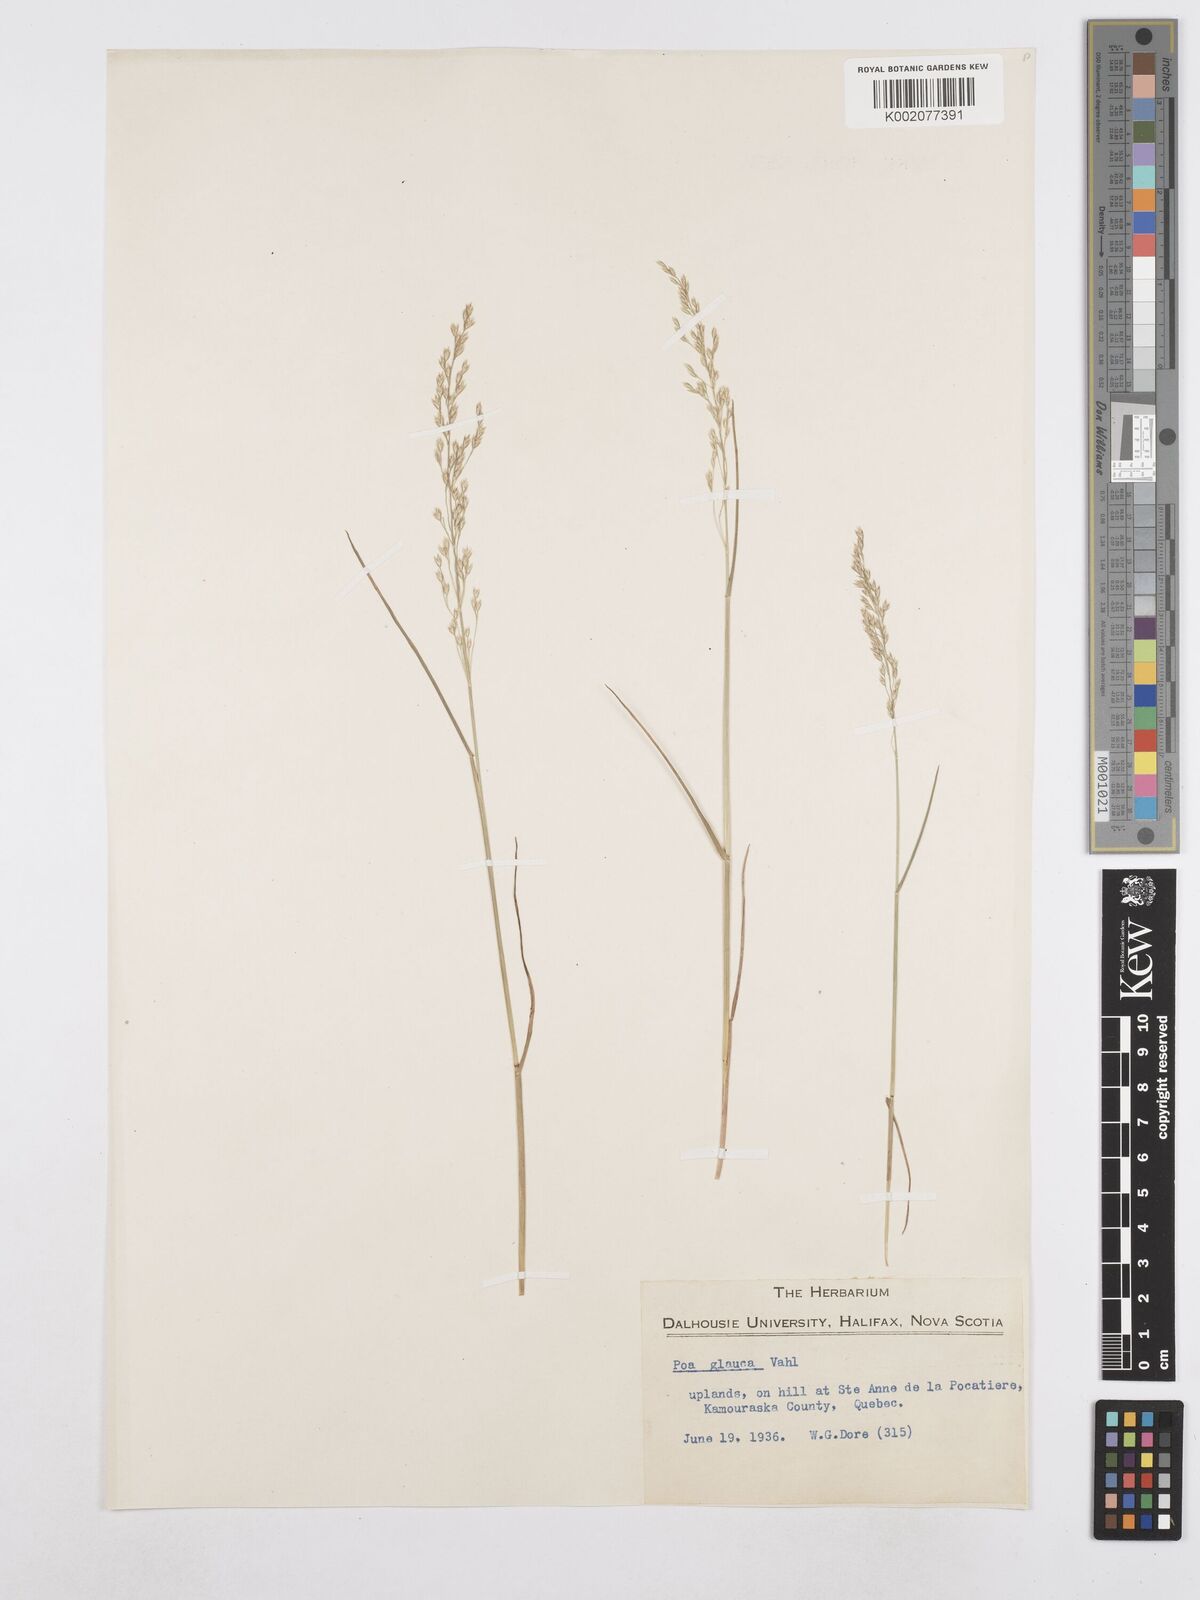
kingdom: Plantae
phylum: Tracheophyta
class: Liliopsida
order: Poales
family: Poaceae
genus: Poa
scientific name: Poa glauca
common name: Glaucous bluegrass
